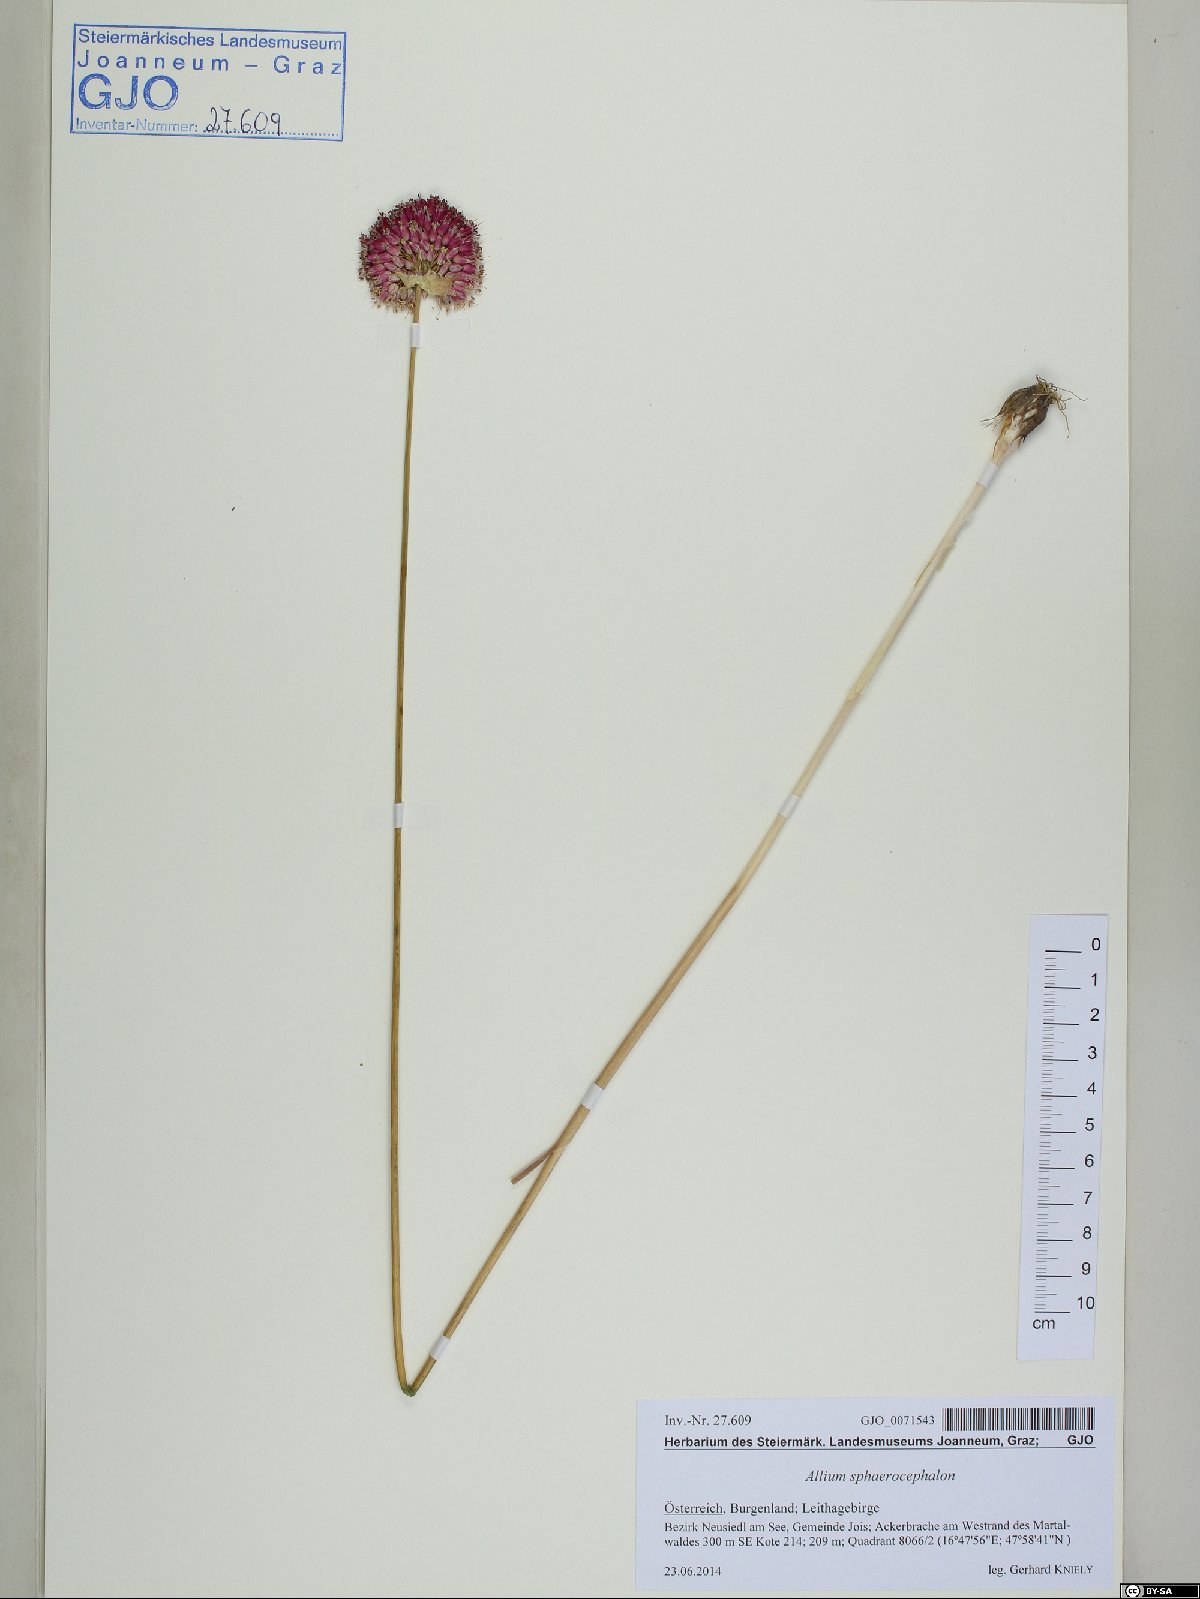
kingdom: Plantae
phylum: Tracheophyta
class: Liliopsida
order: Asparagales
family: Amaryllidaceae
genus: Allium
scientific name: Allium sphaerocephalon
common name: Round-headed leek
